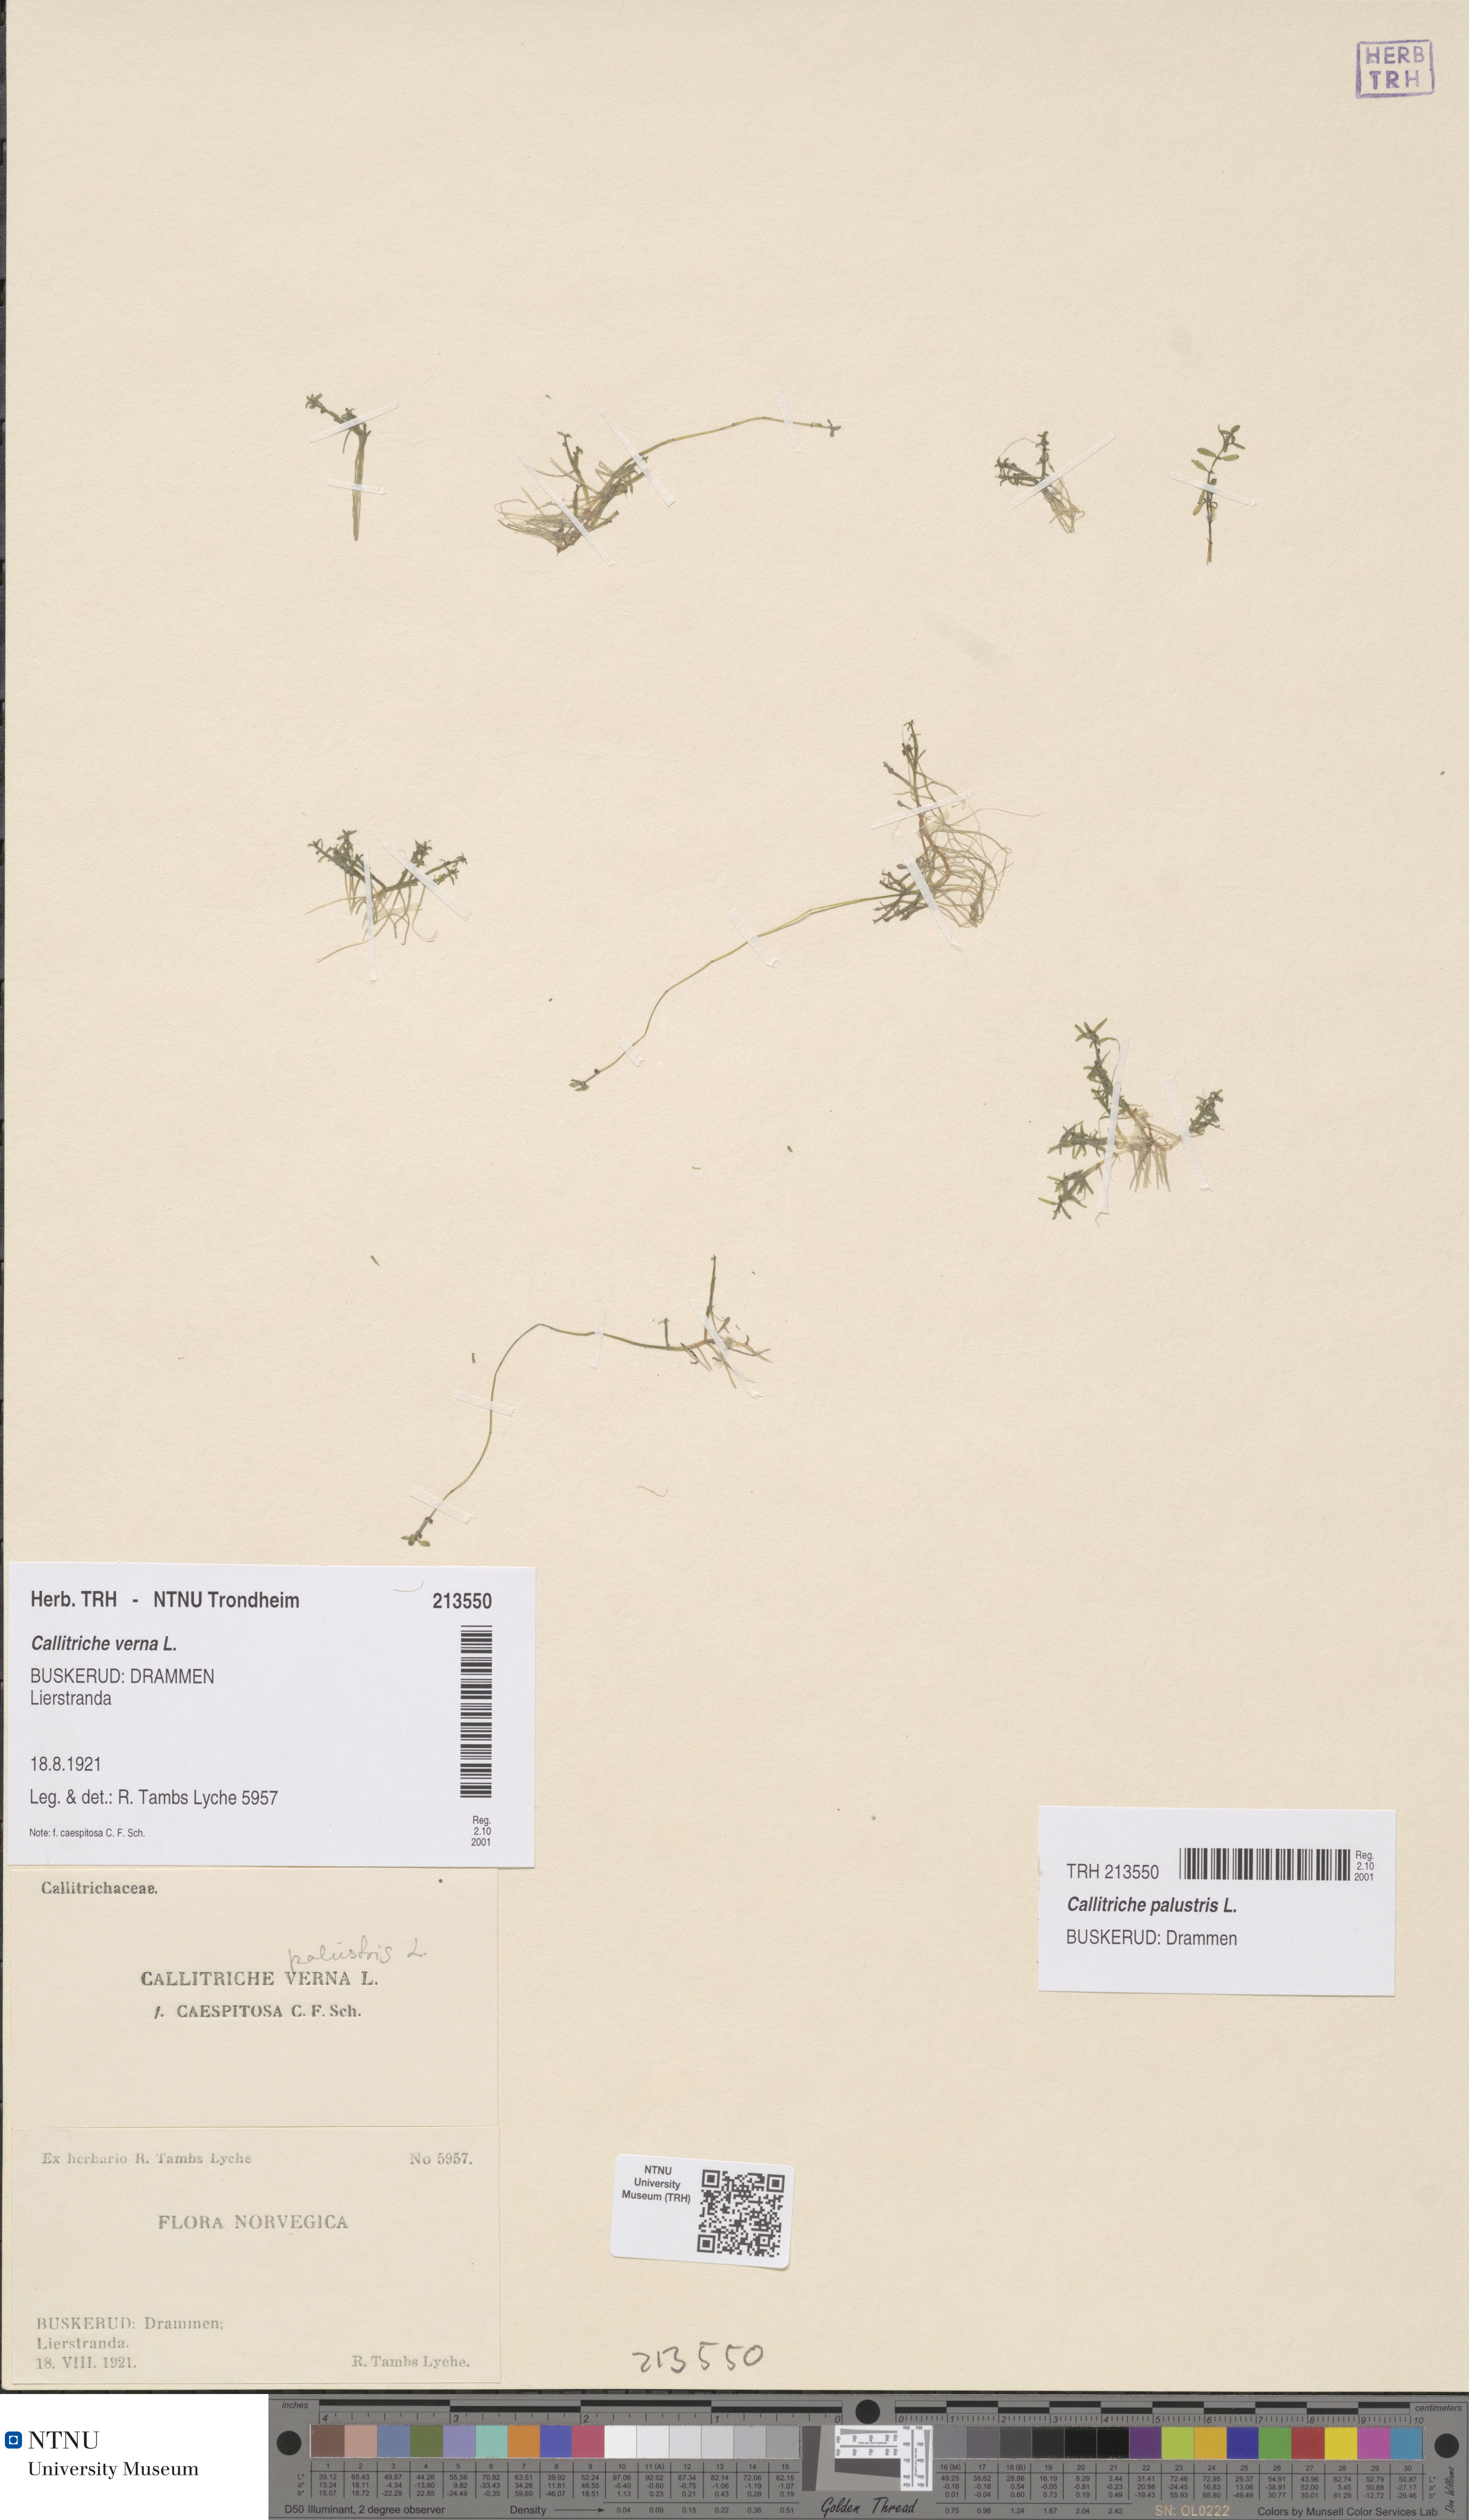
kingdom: Plantae
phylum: Tracheophyta
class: Magnoliopsida
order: Lamiales
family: Plantaginaceae
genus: Callitriche
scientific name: Callitriche palustris
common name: Spring water-starwort
